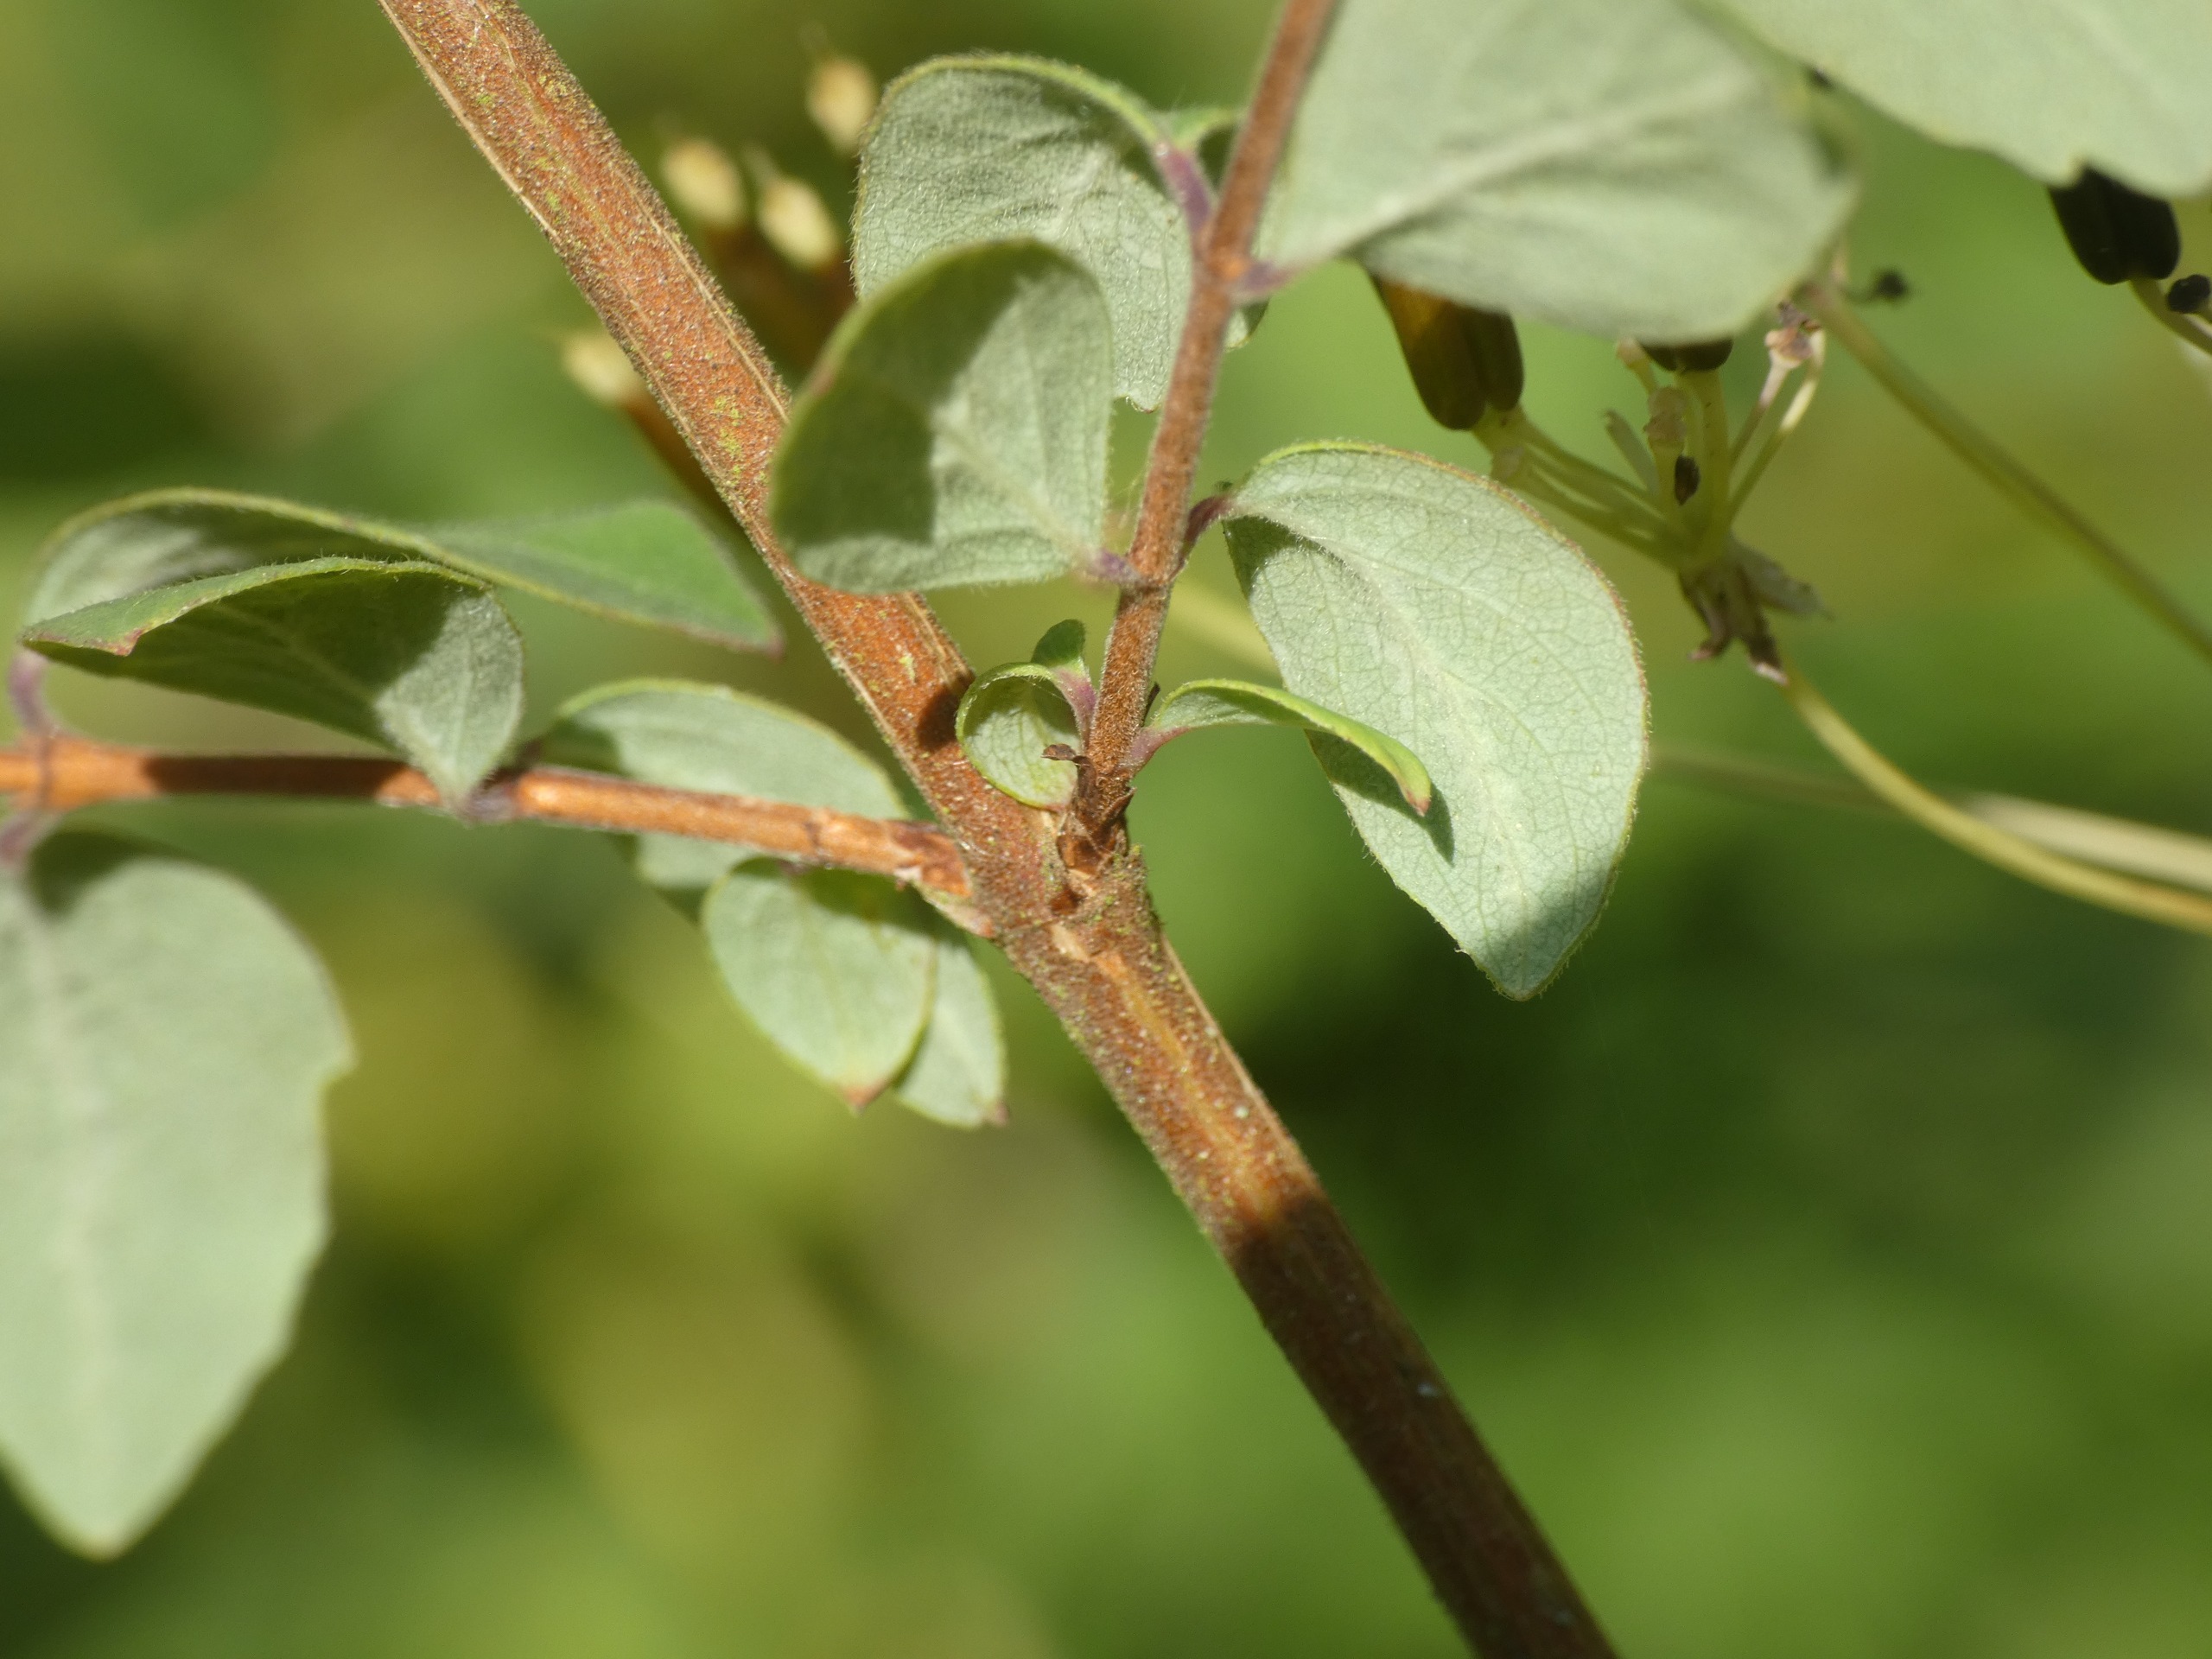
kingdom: Plantae
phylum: Tracheophyta
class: Magnoliopsida
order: Dipsacales
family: Caprifoliaceae
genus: Symphoricarpos
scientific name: Symphoricarpos chenaultii
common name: Rød snebær
